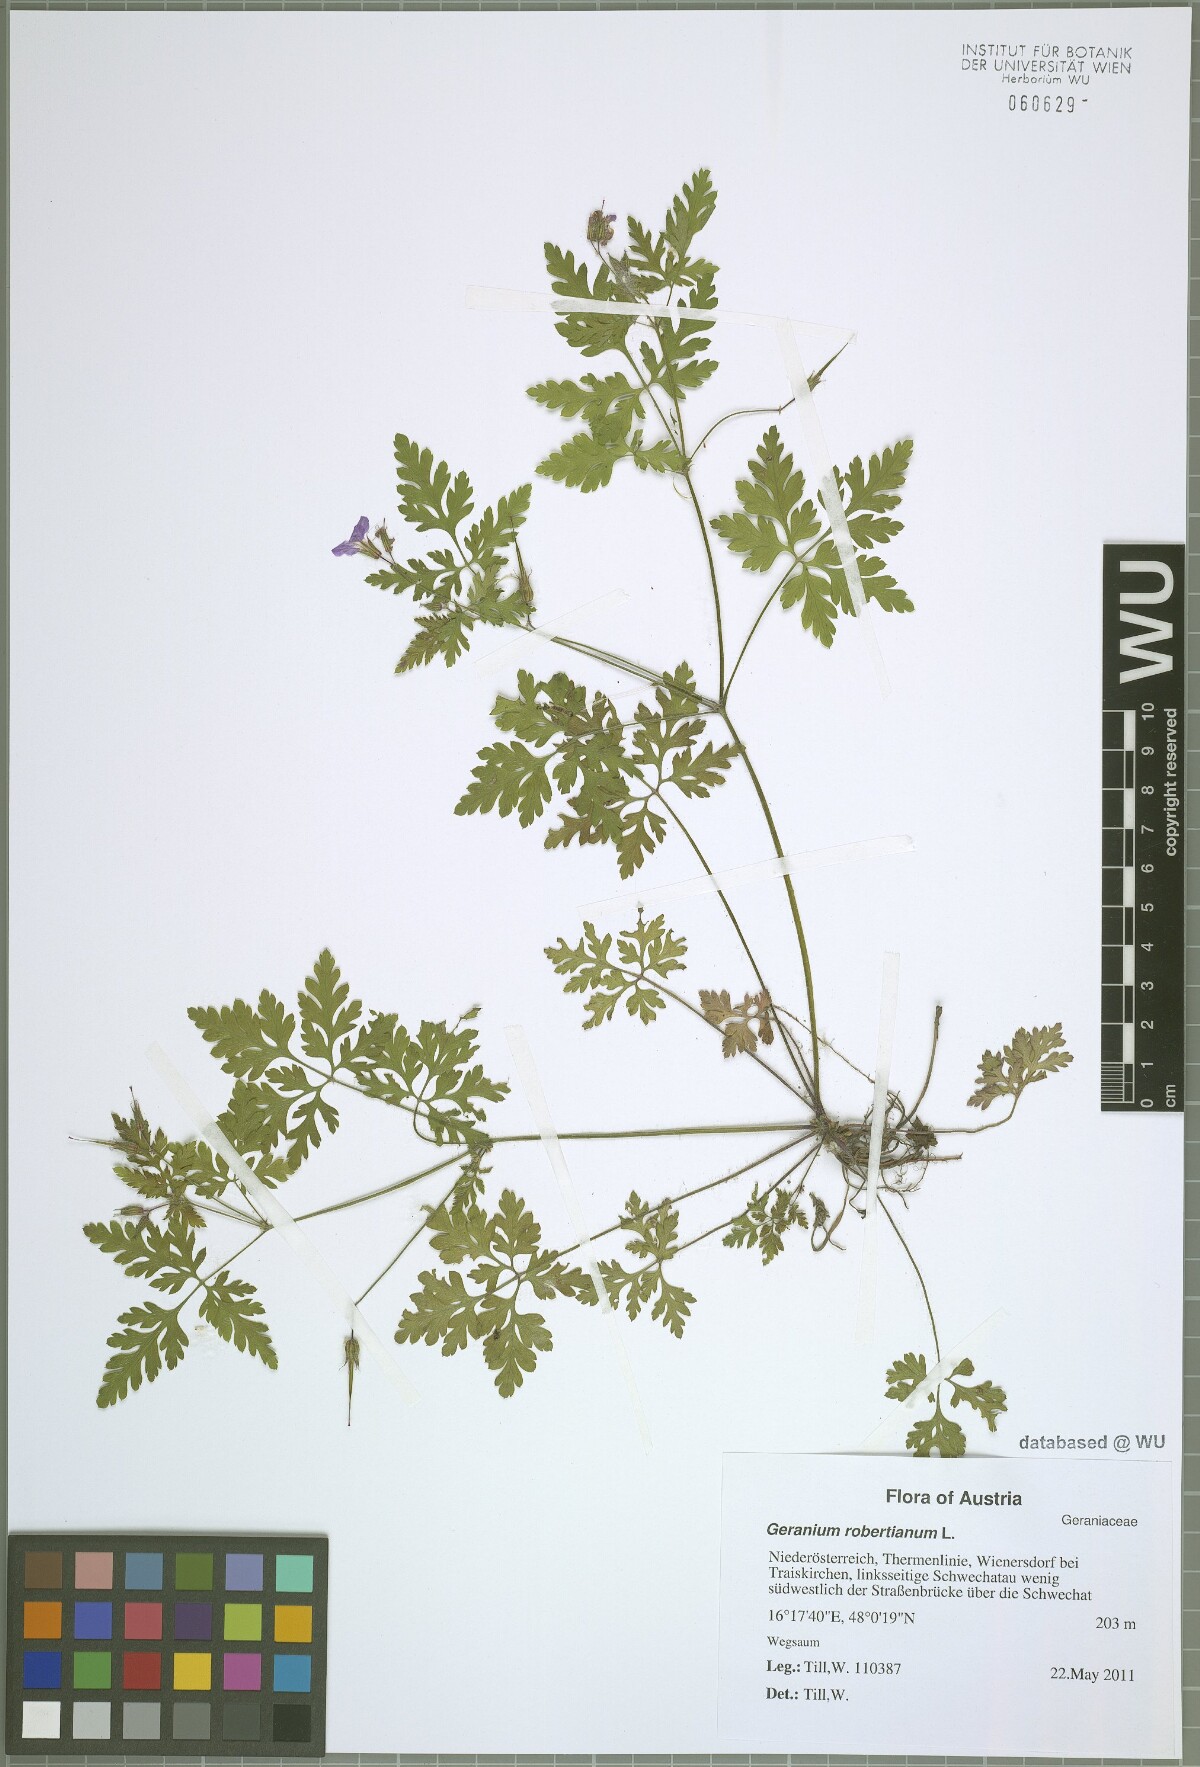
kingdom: Plantae
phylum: Tracheophyta
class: Magnoliopsida
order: Geraniales
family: Geraniaceae
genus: Geranium
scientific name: Geranium robertianum
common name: Herb-robert
